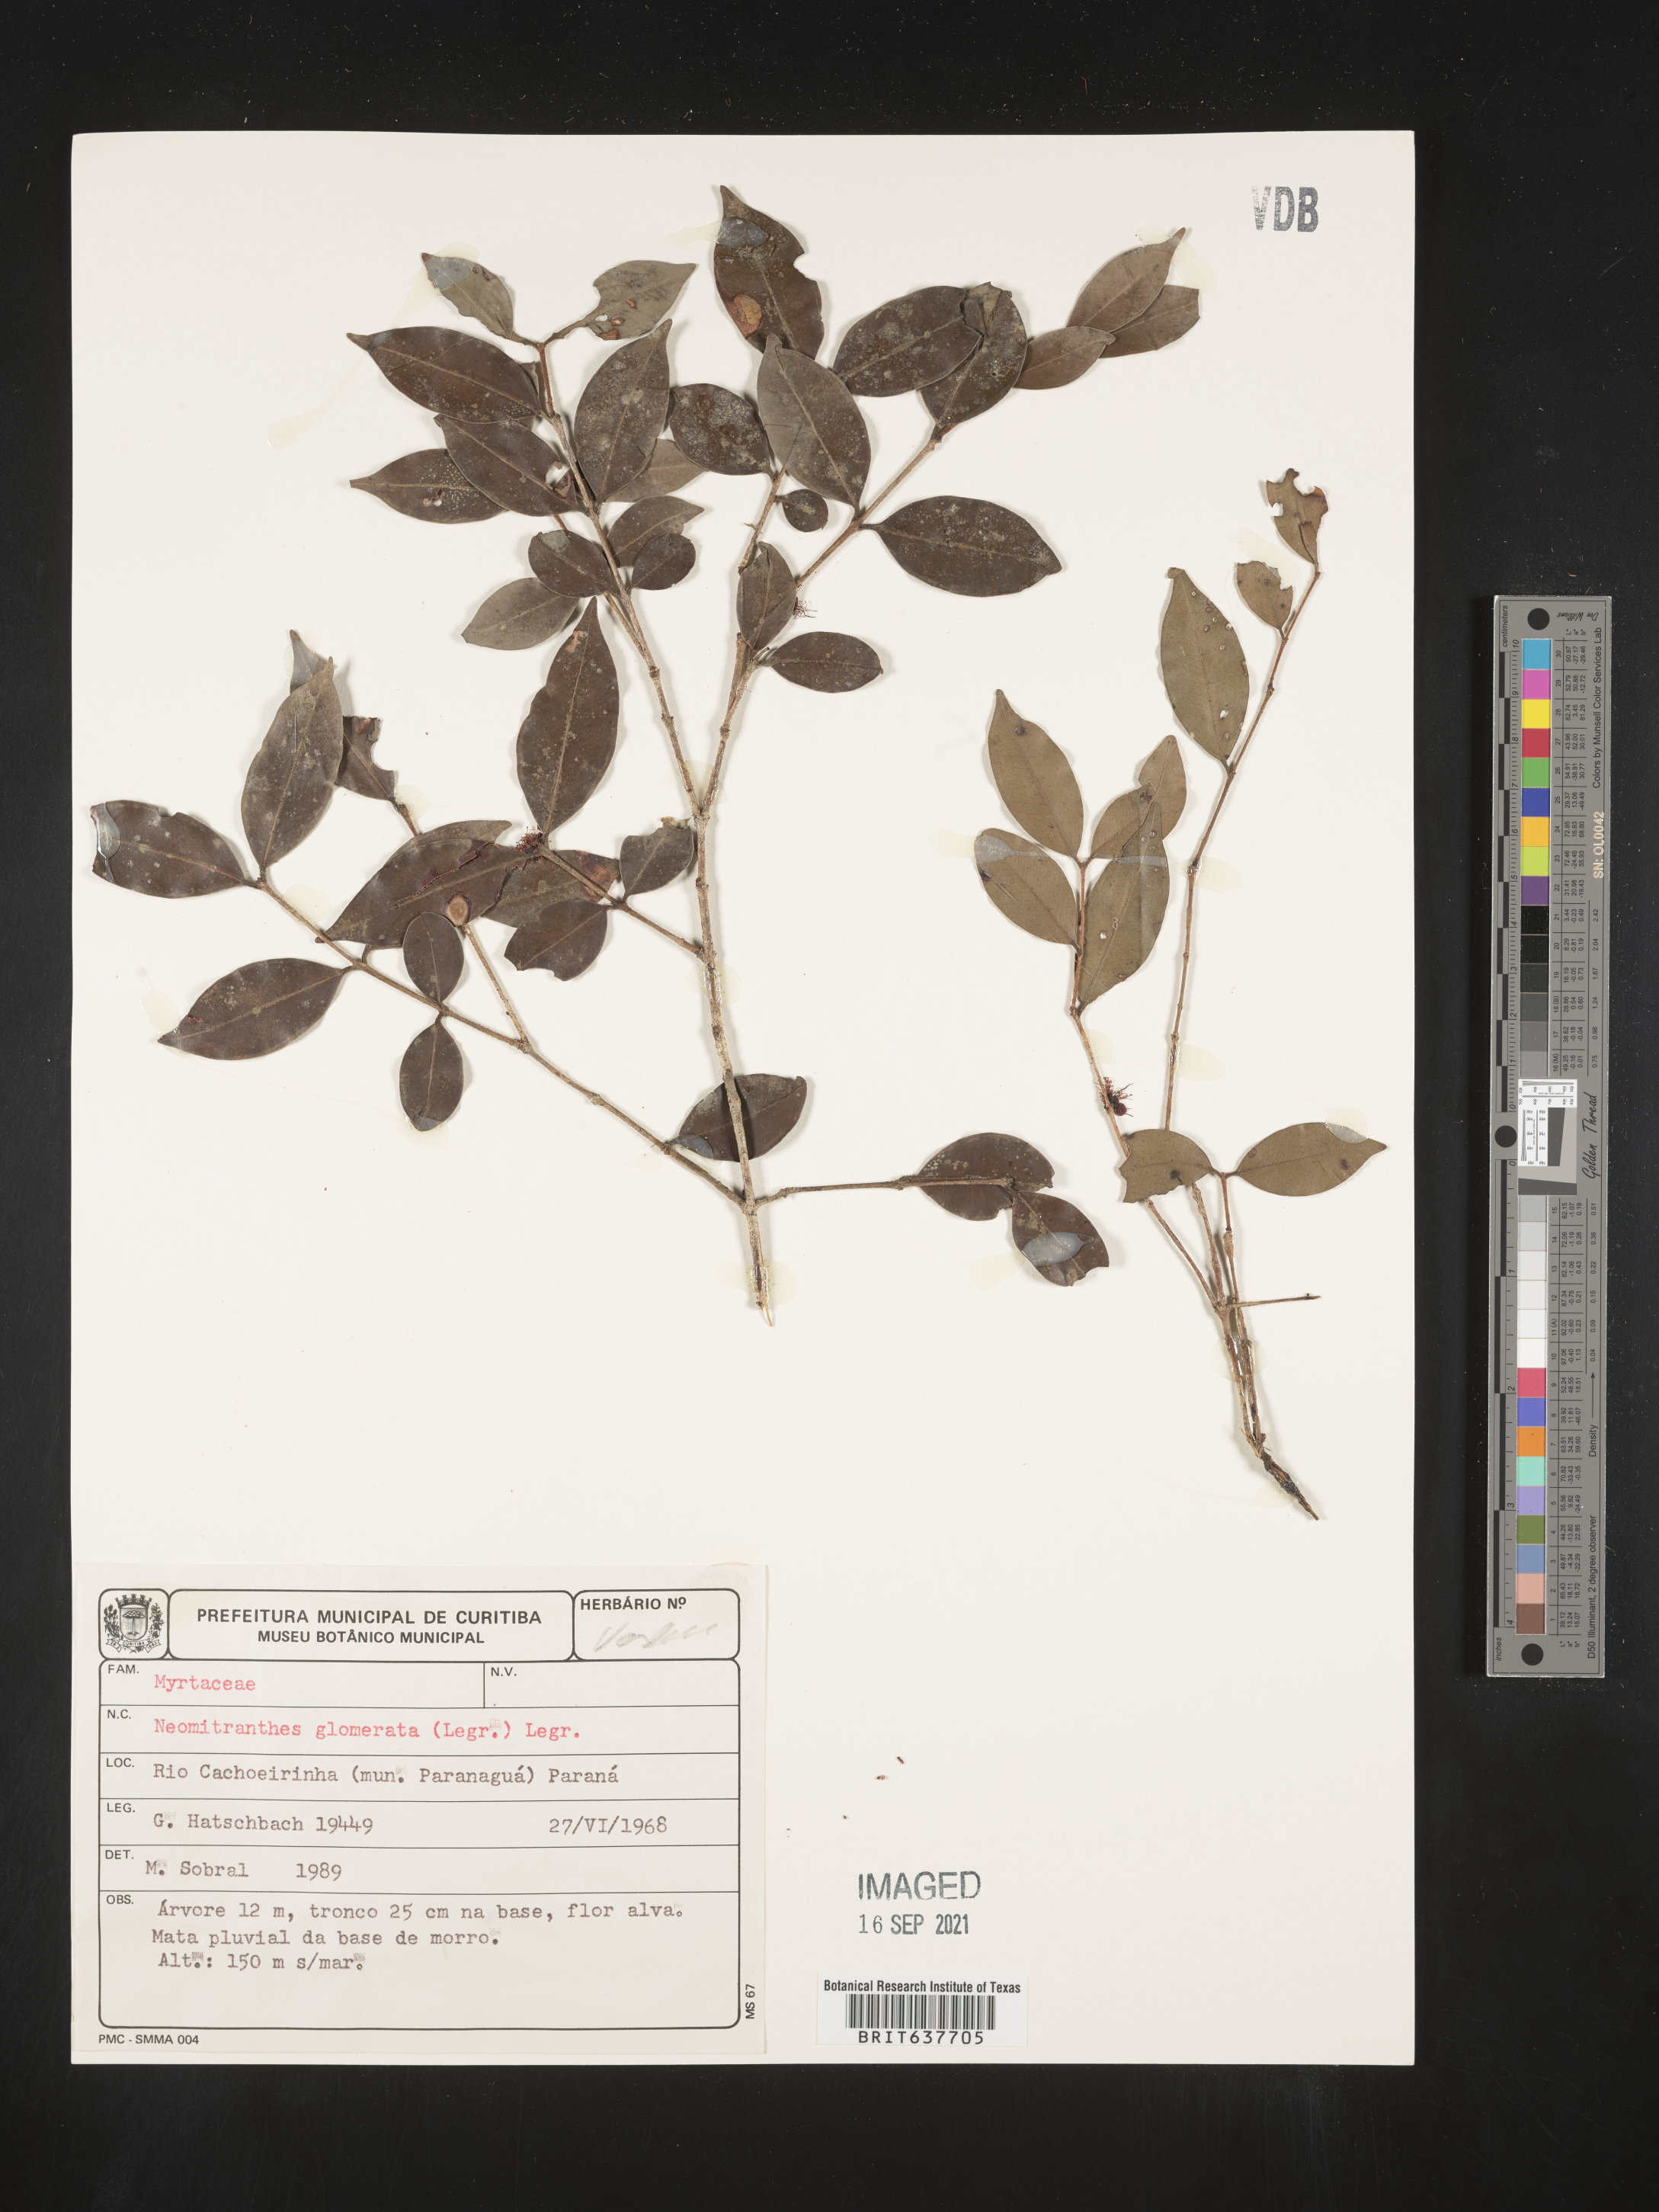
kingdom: Plantae
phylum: Tracheophyta
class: Magnoliopsida
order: Myrtales
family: Myrtaceae
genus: Neomitranthes
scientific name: Neomitranthes
